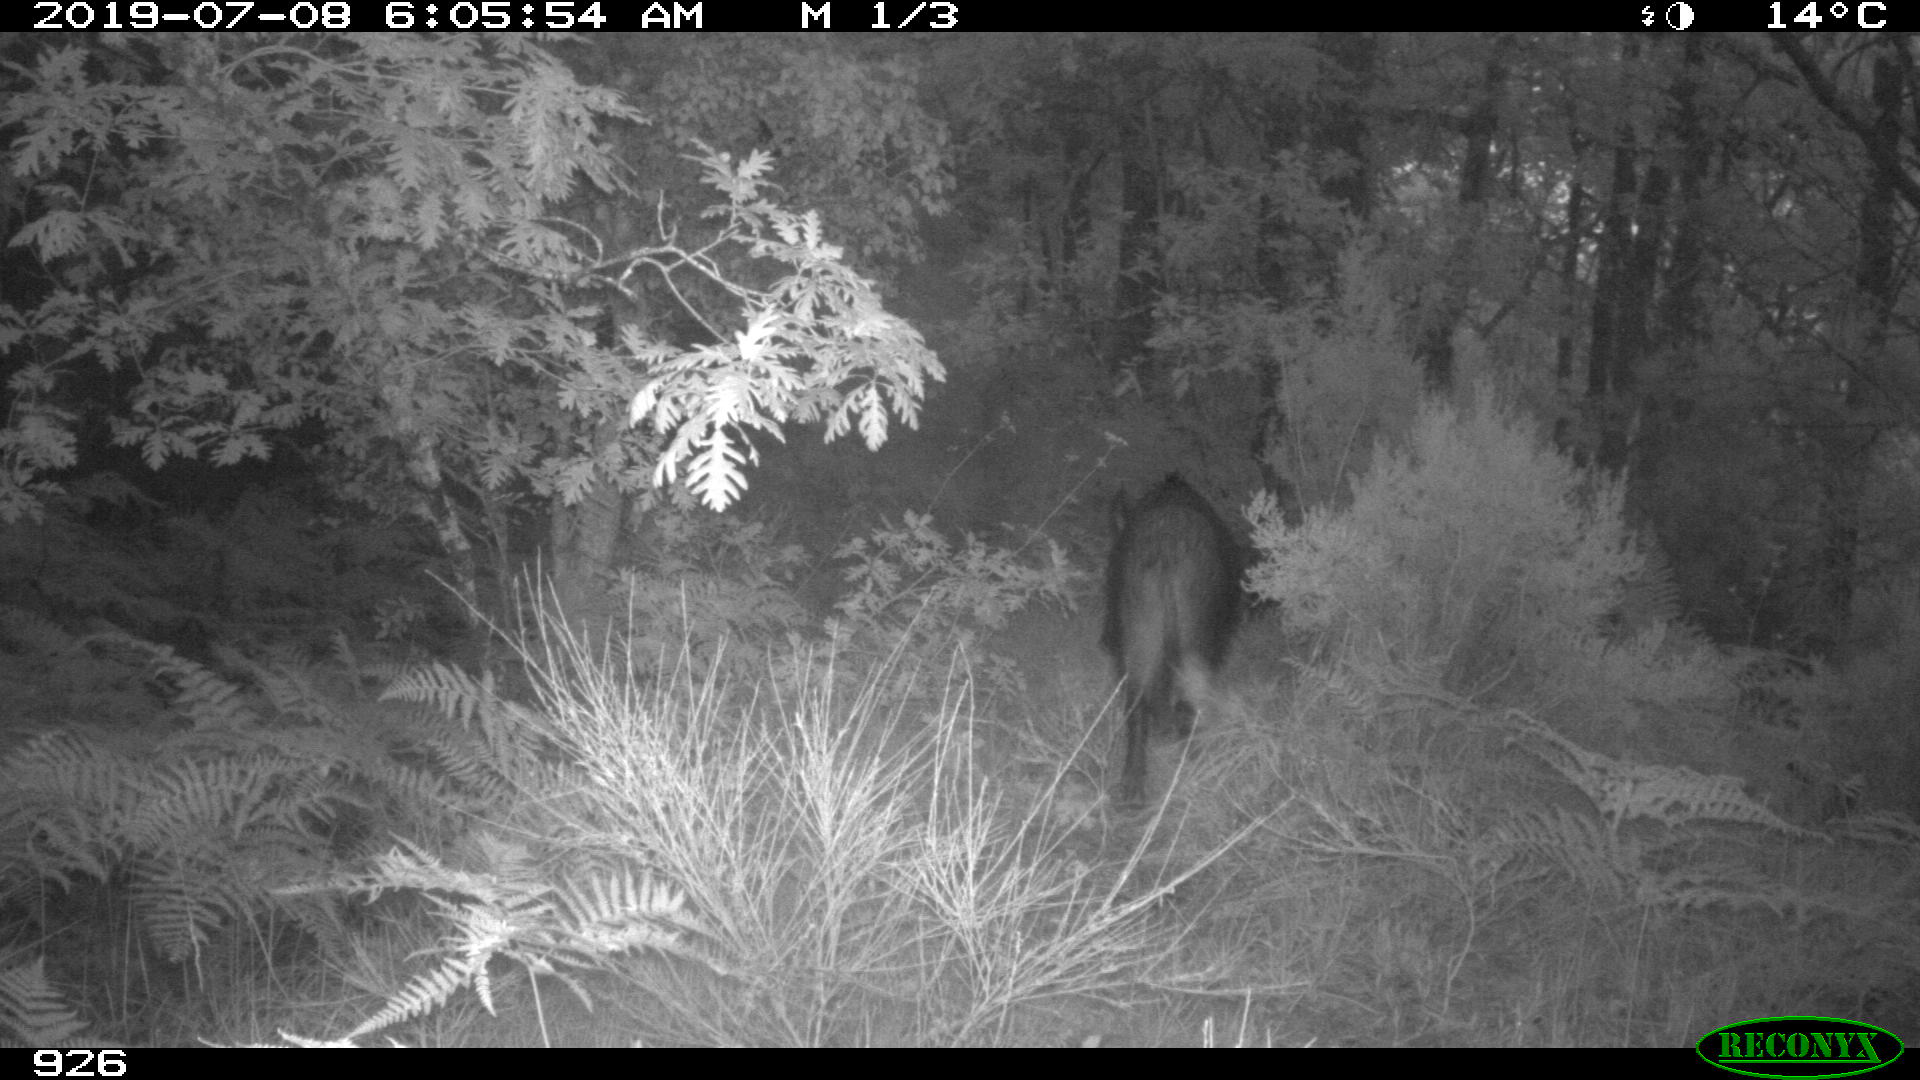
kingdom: Animalia
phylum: Chordata
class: Mammalia
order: Artiodactyla
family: Suidae
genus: Sus
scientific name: Sus scrofa
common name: Wild boar
